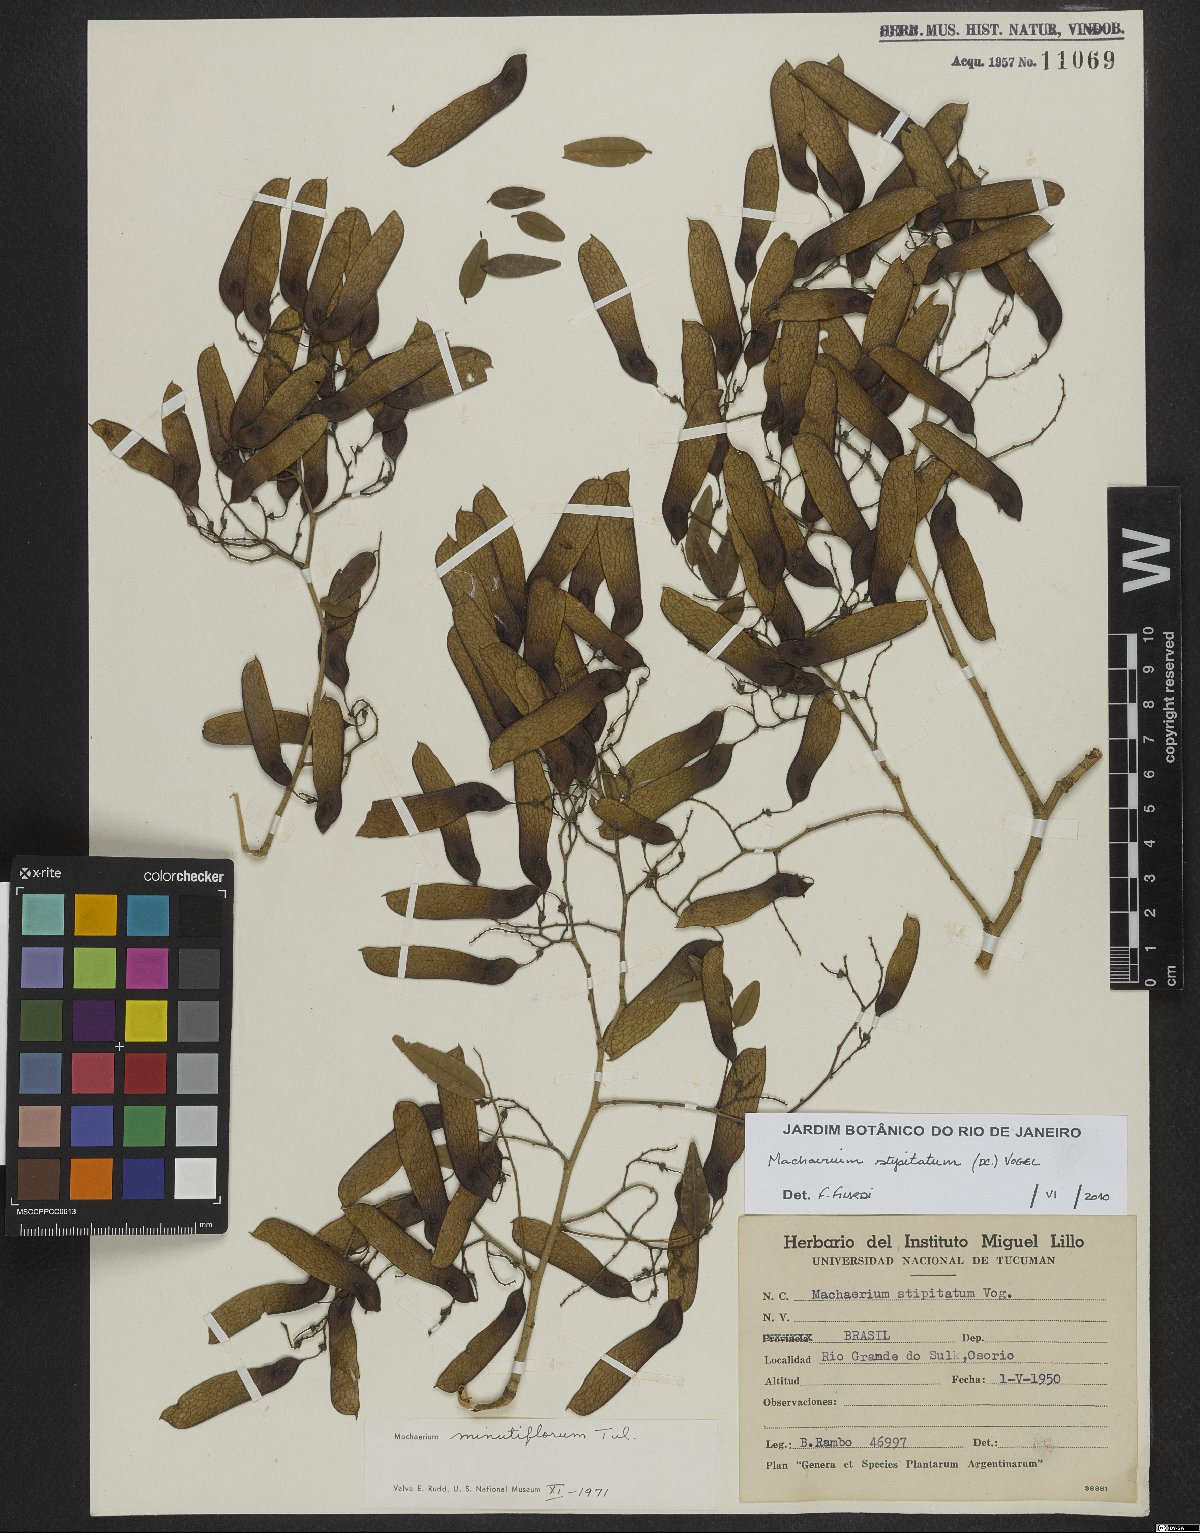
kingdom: Plantae
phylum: Tracheophyta
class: Magnoliopsida
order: Fabales
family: Fabaceae
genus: Machaerium
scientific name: Machaerium stipitatum
